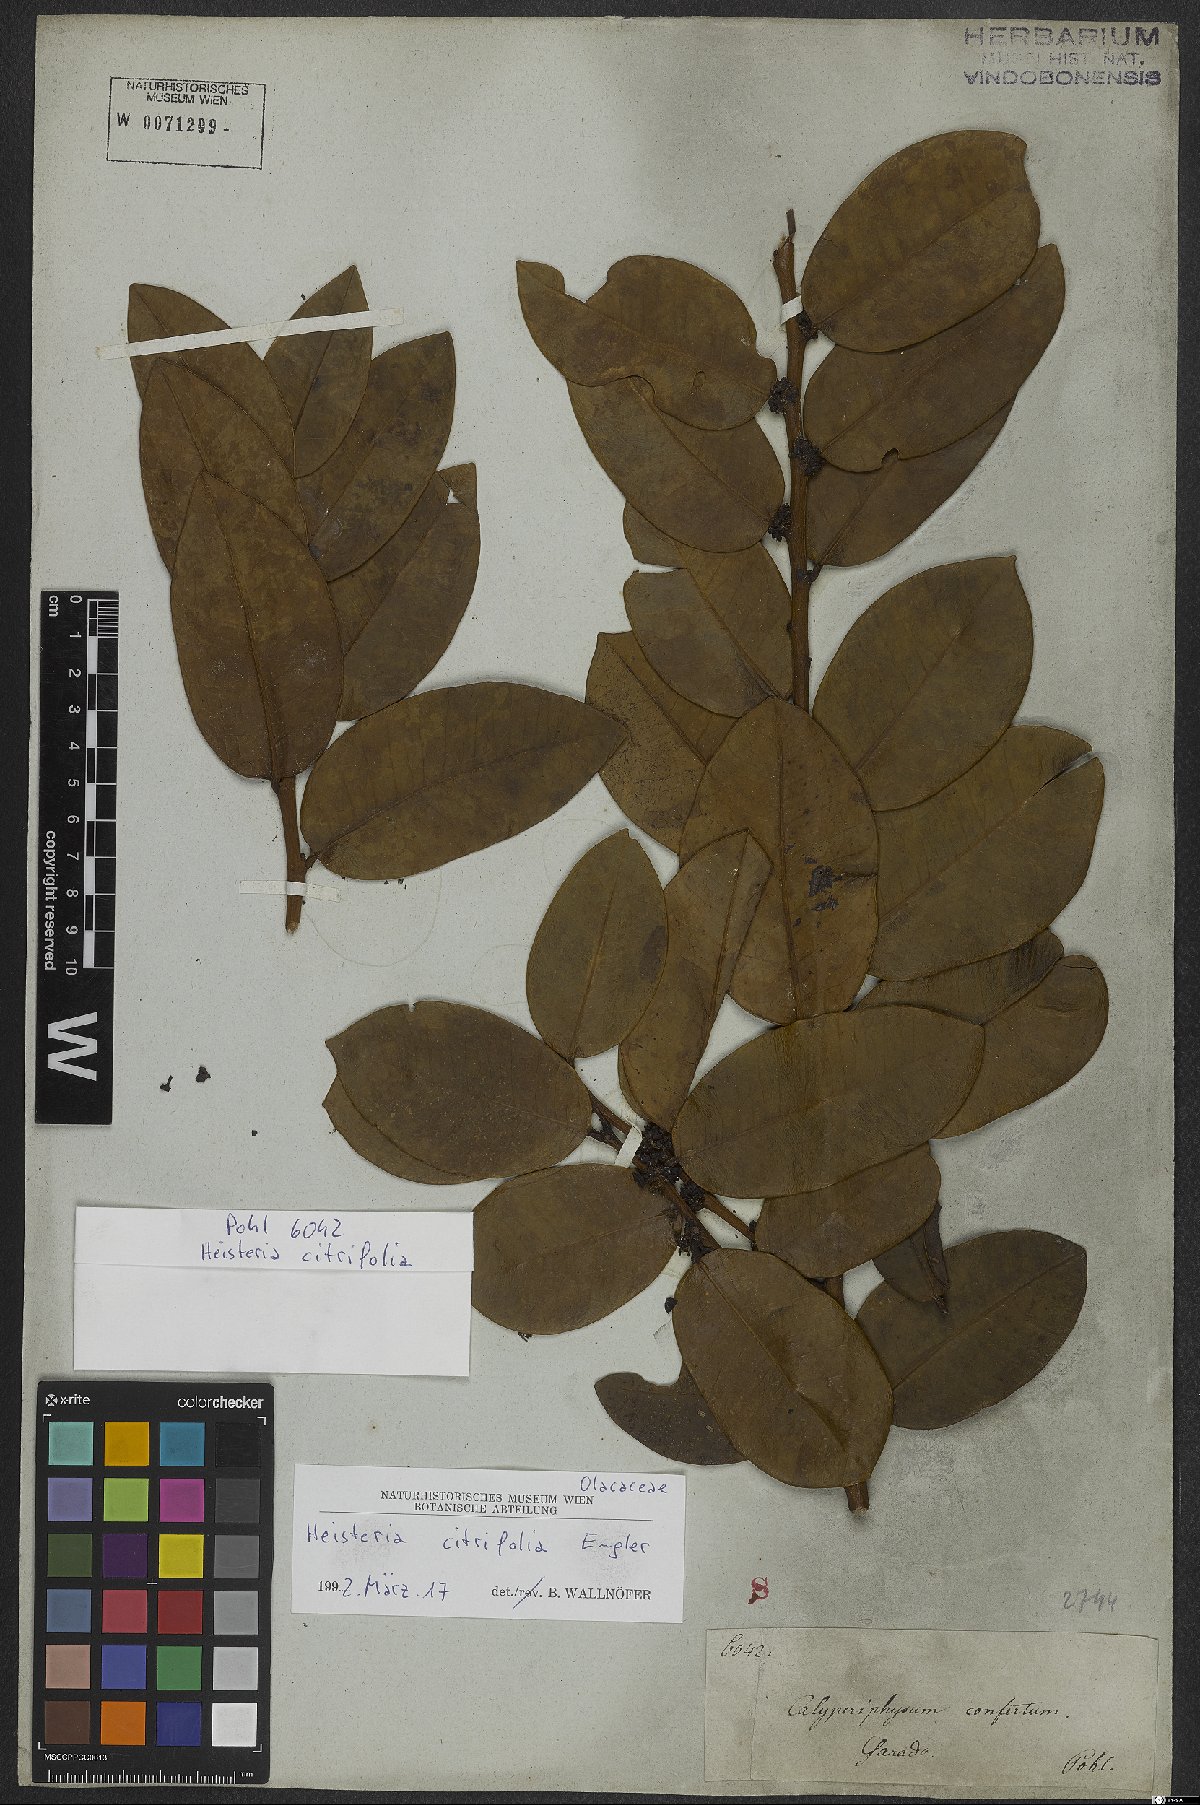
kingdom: Plantae
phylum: Tracheophyta
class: Magnoliopsida
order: Santalales
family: Erythropalaceae
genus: Heisteria
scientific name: Heisteria citrifolia
